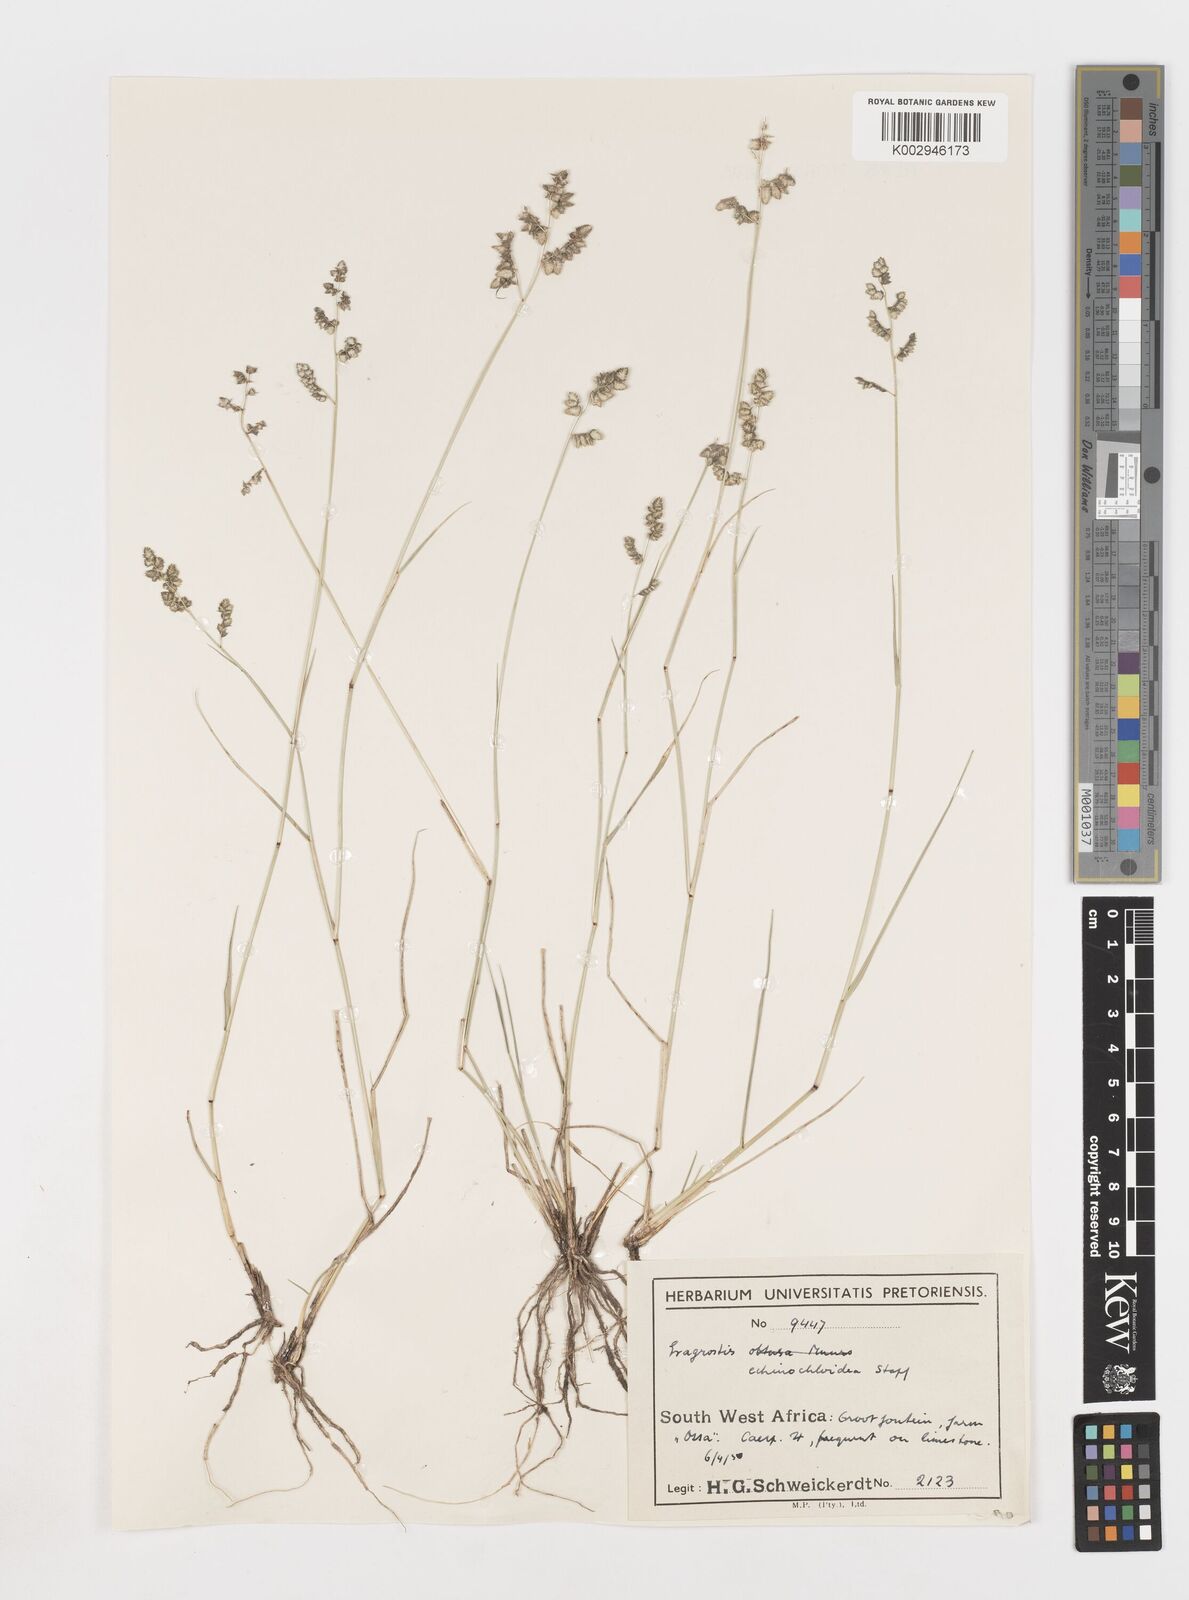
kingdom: Plantae
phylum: Tracheophyta
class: Liliopsida
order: Poales
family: Poaceae
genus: Eragrostis
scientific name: Eragrostis echinochloidea
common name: African lovegrass
